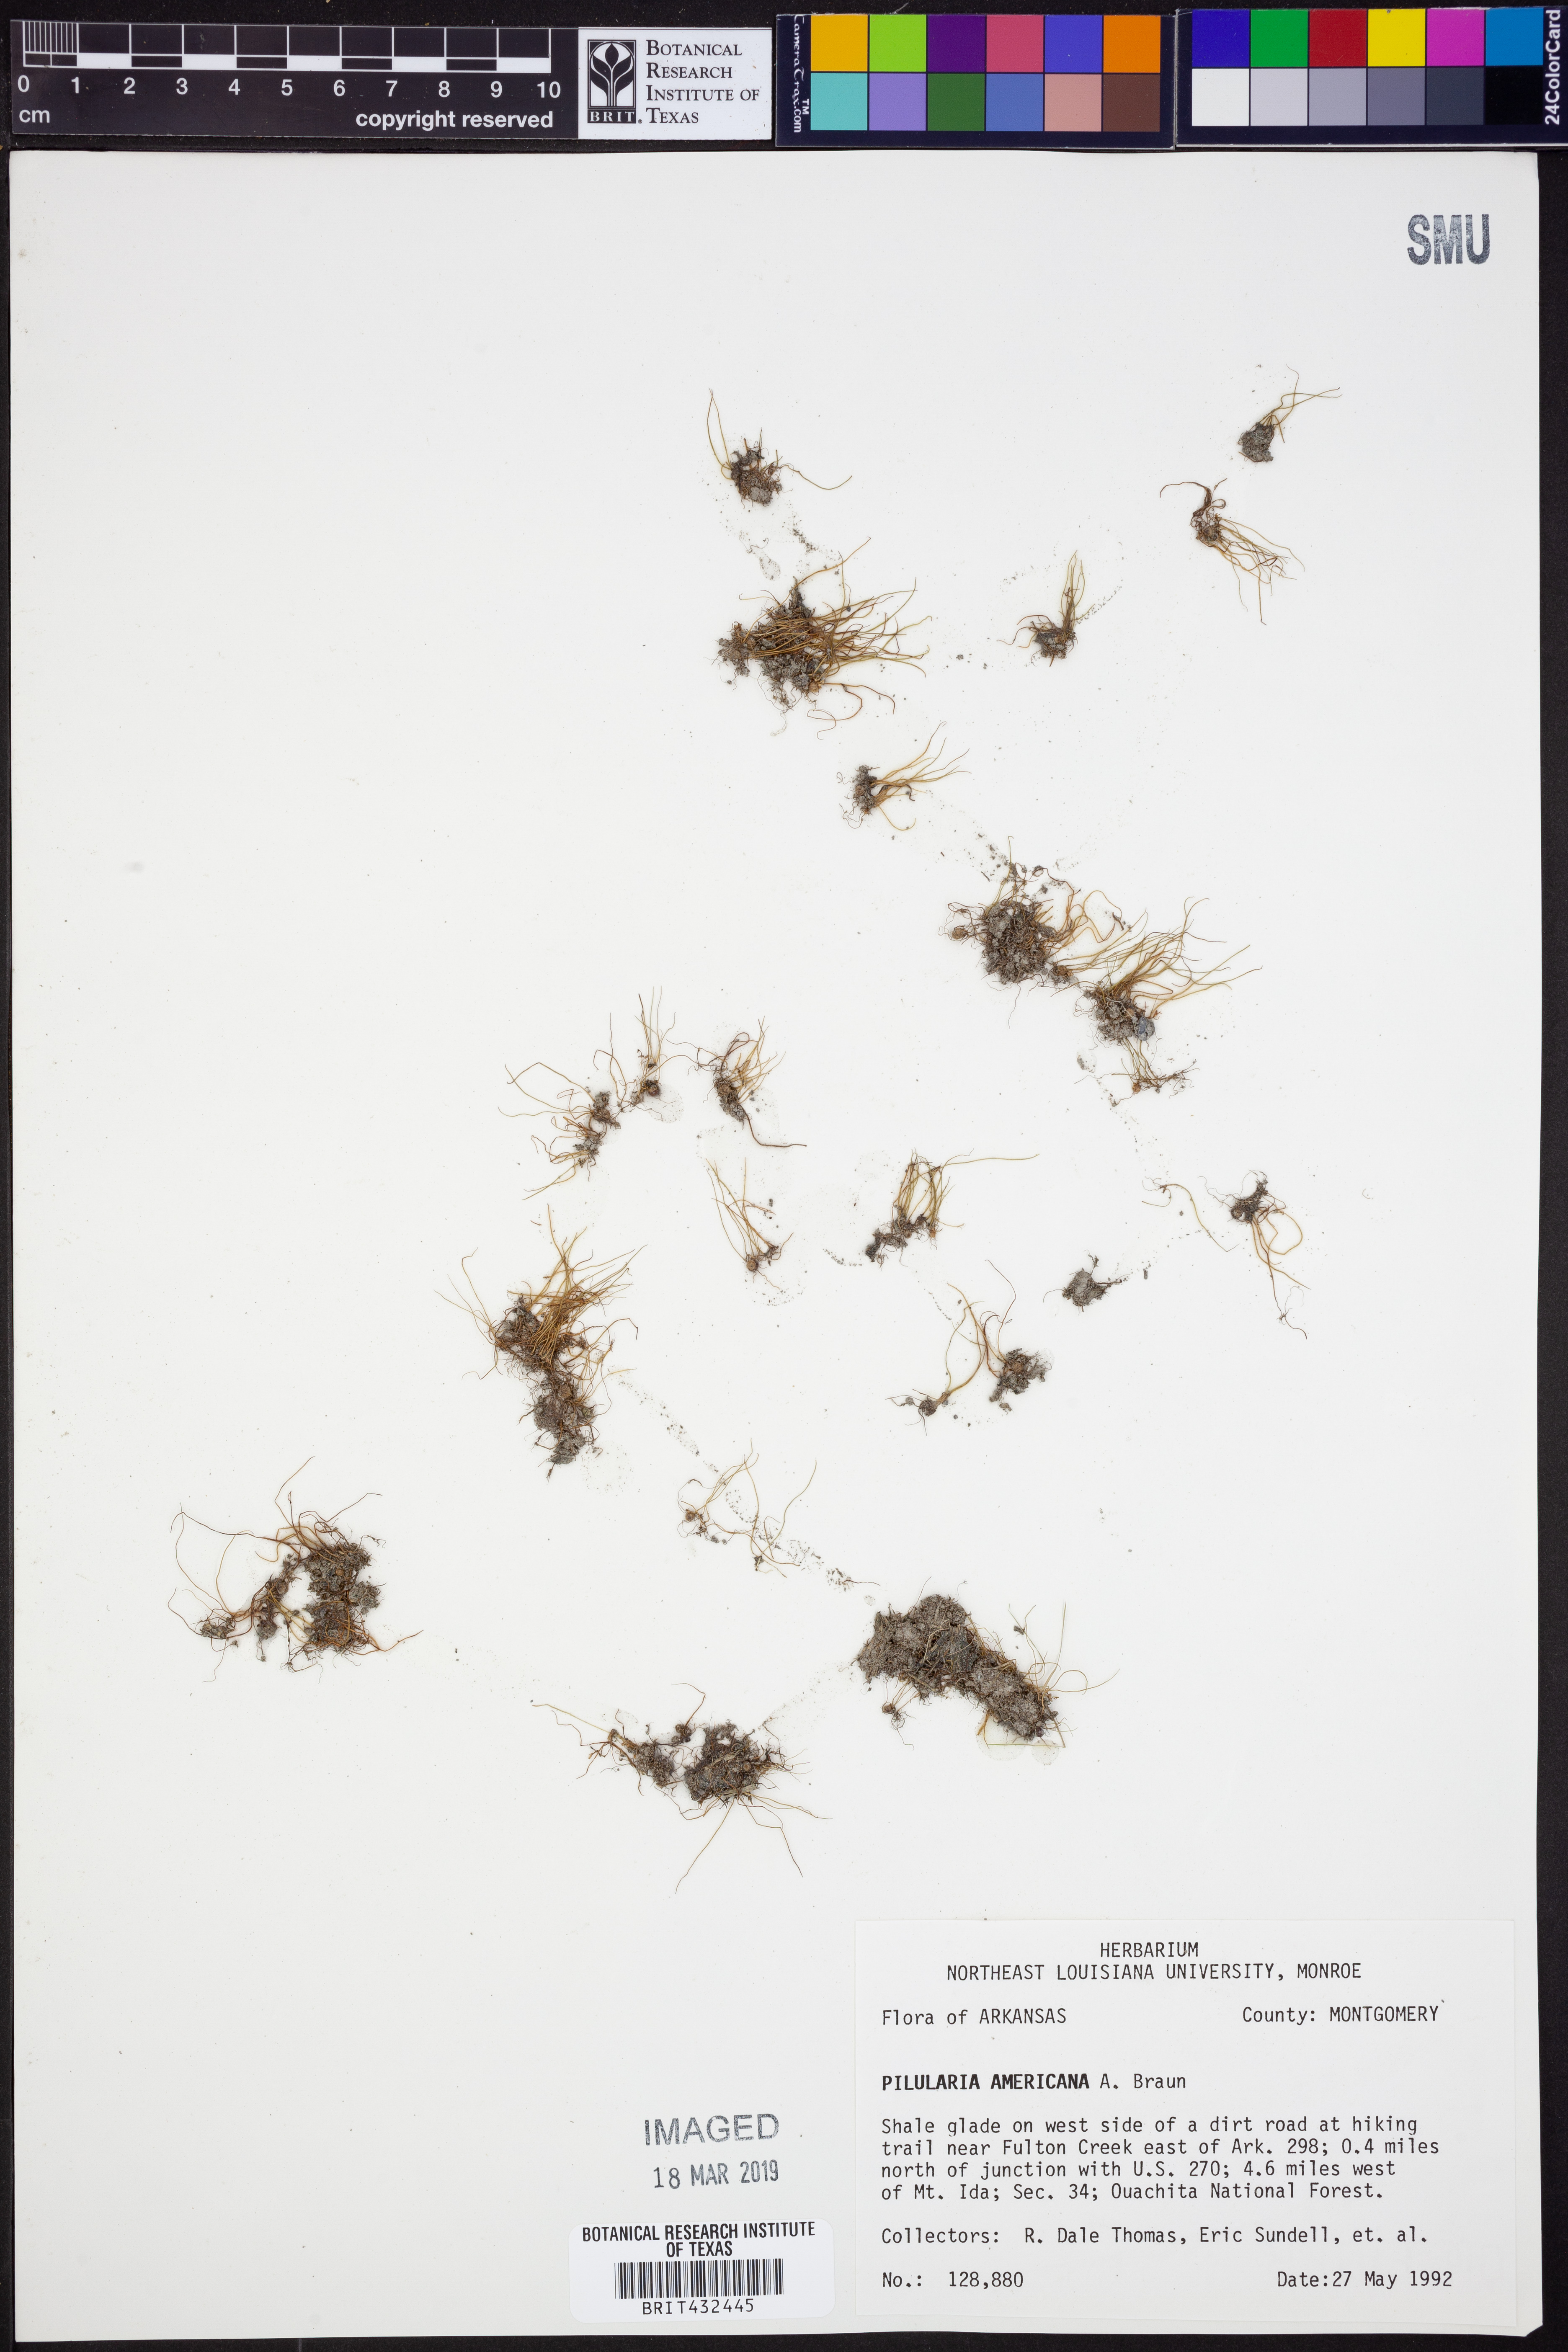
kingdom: Plantae
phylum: Tracheophyta
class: Polypodiopsida
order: Salviniales
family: Marsileaceae
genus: Pilularia
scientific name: Pilularia americana
